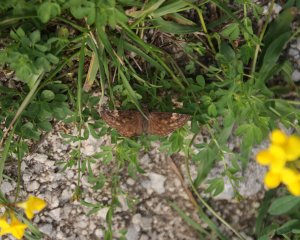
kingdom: Animalia
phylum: Arthropoda
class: Insecta
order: Lepidoptera
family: Hesperiidae
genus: Gesta
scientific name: Gesta
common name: Wild Indigo Duskywing
